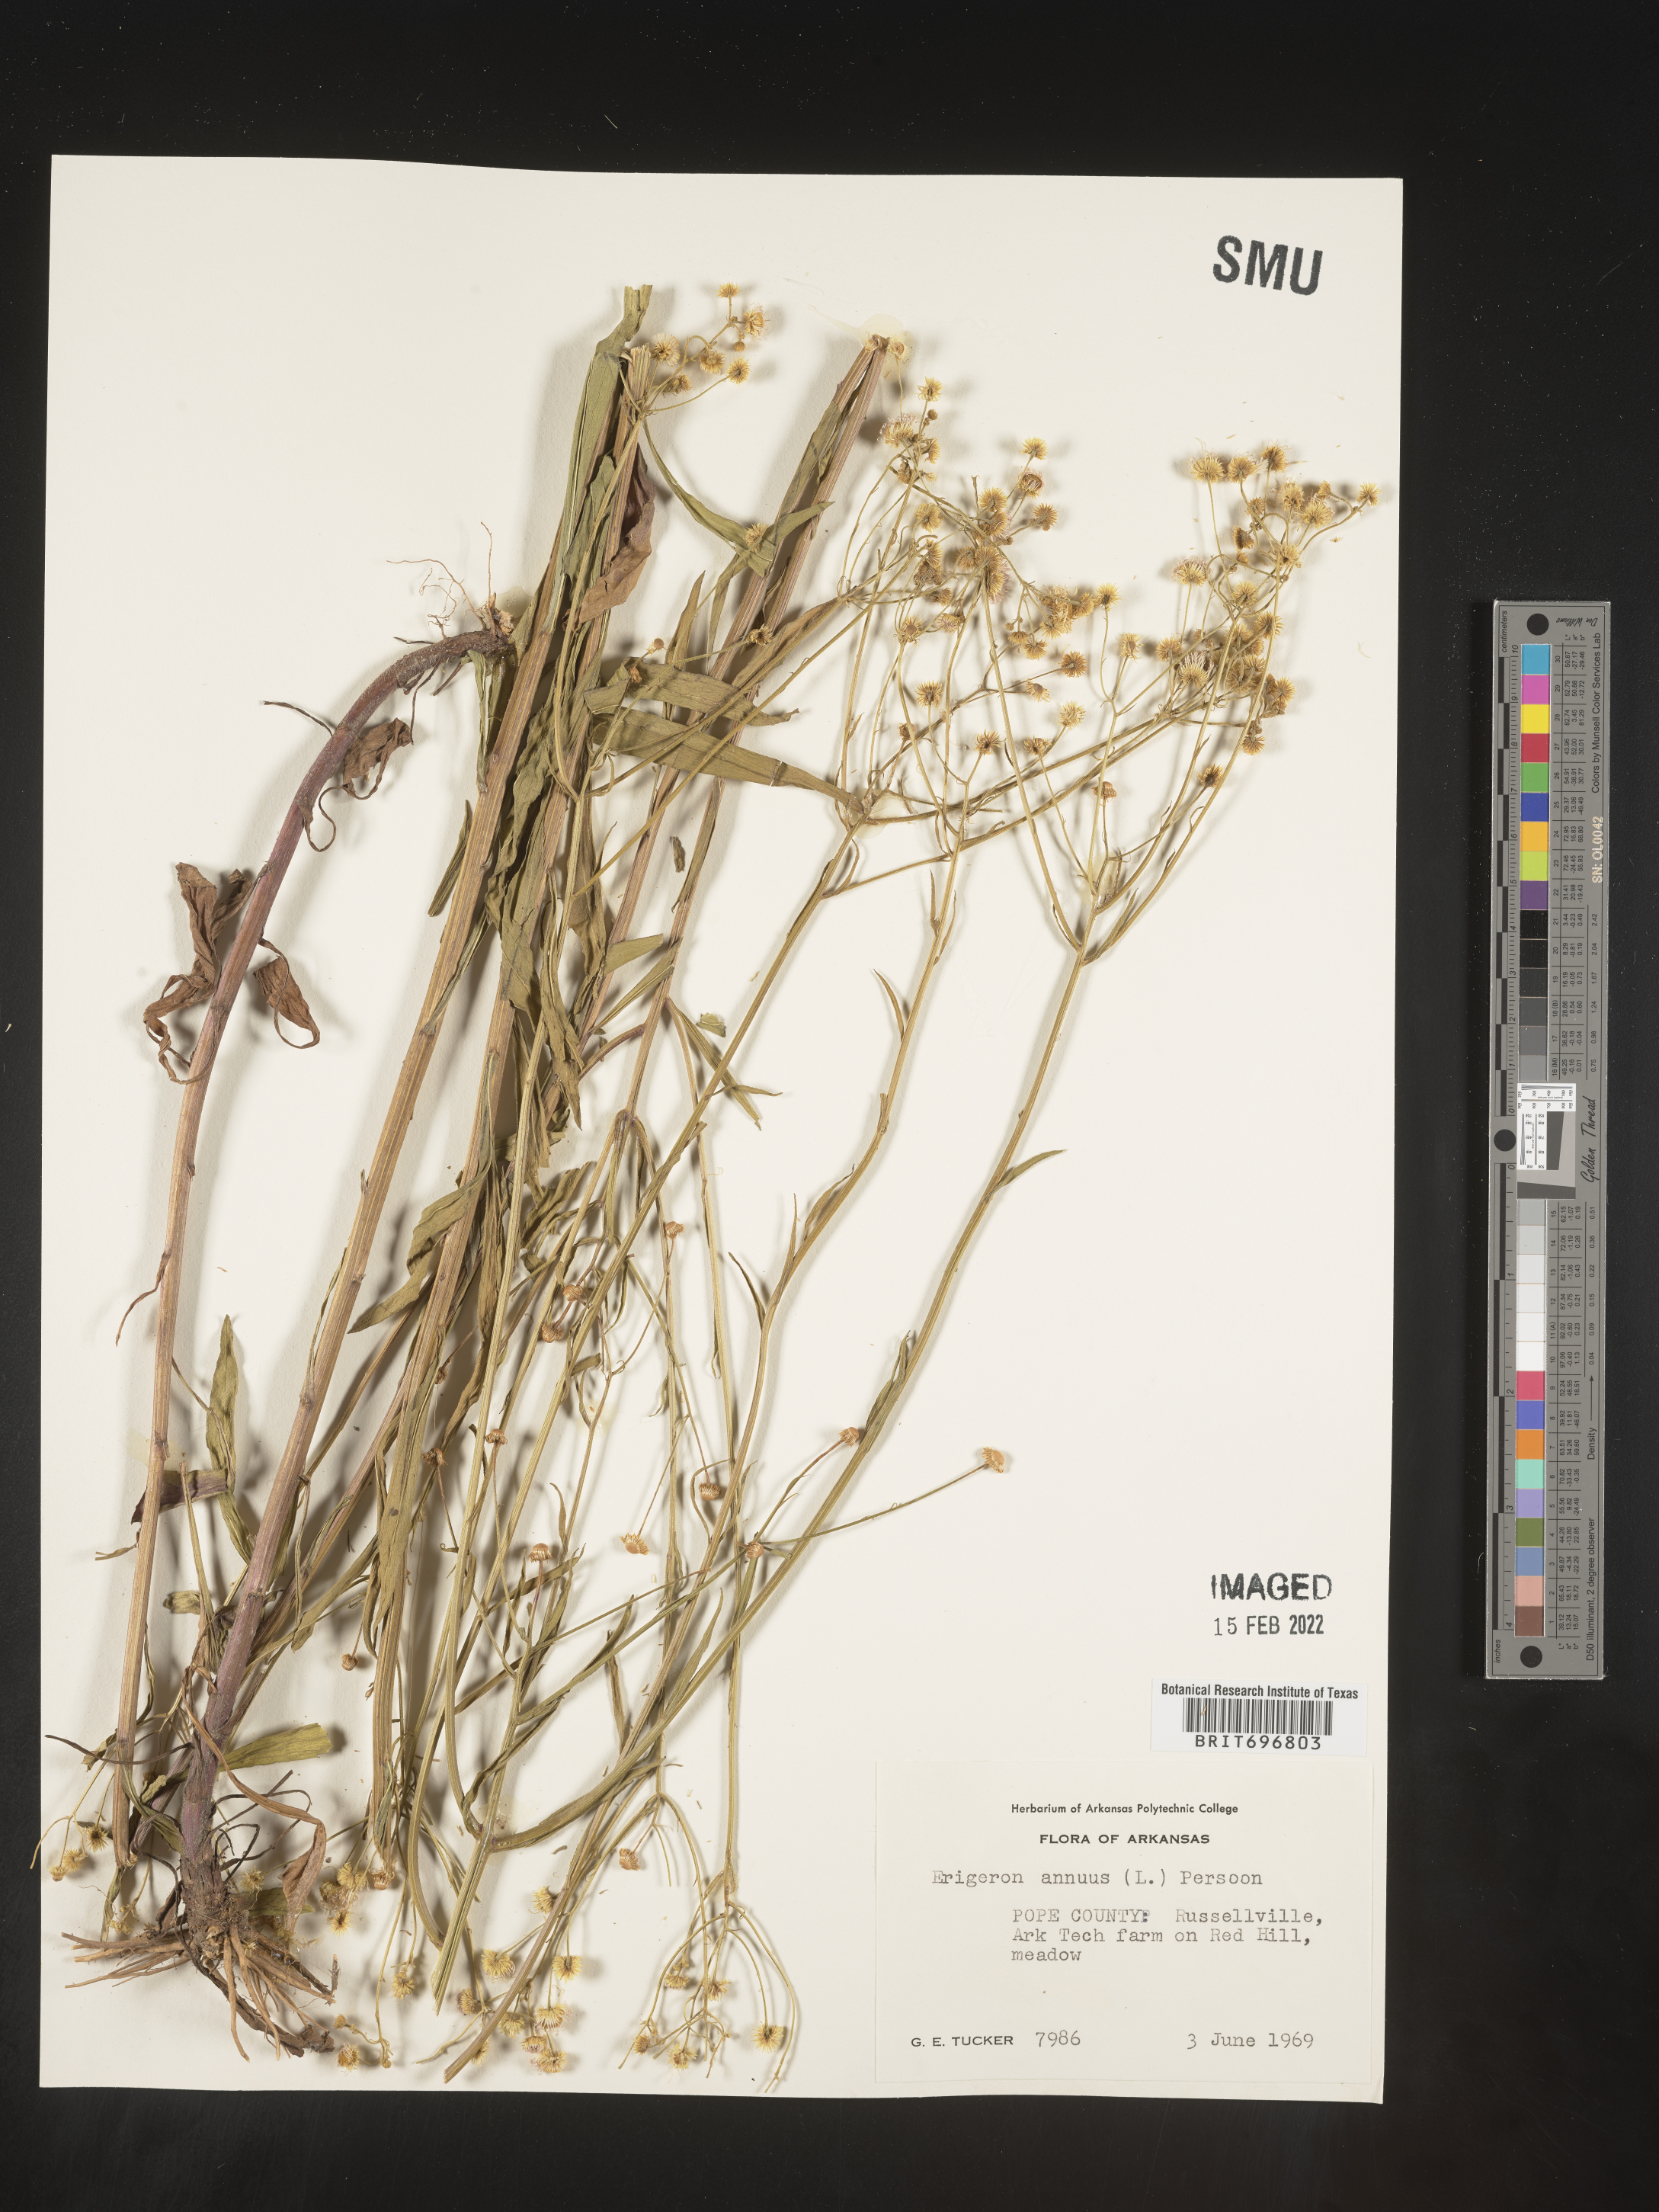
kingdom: Plantae
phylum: Tracheophyta
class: Magnoliopsida
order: Asterales
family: Asteraceae
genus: Erigeron
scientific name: Erigeron annuus
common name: Tall fleabane
